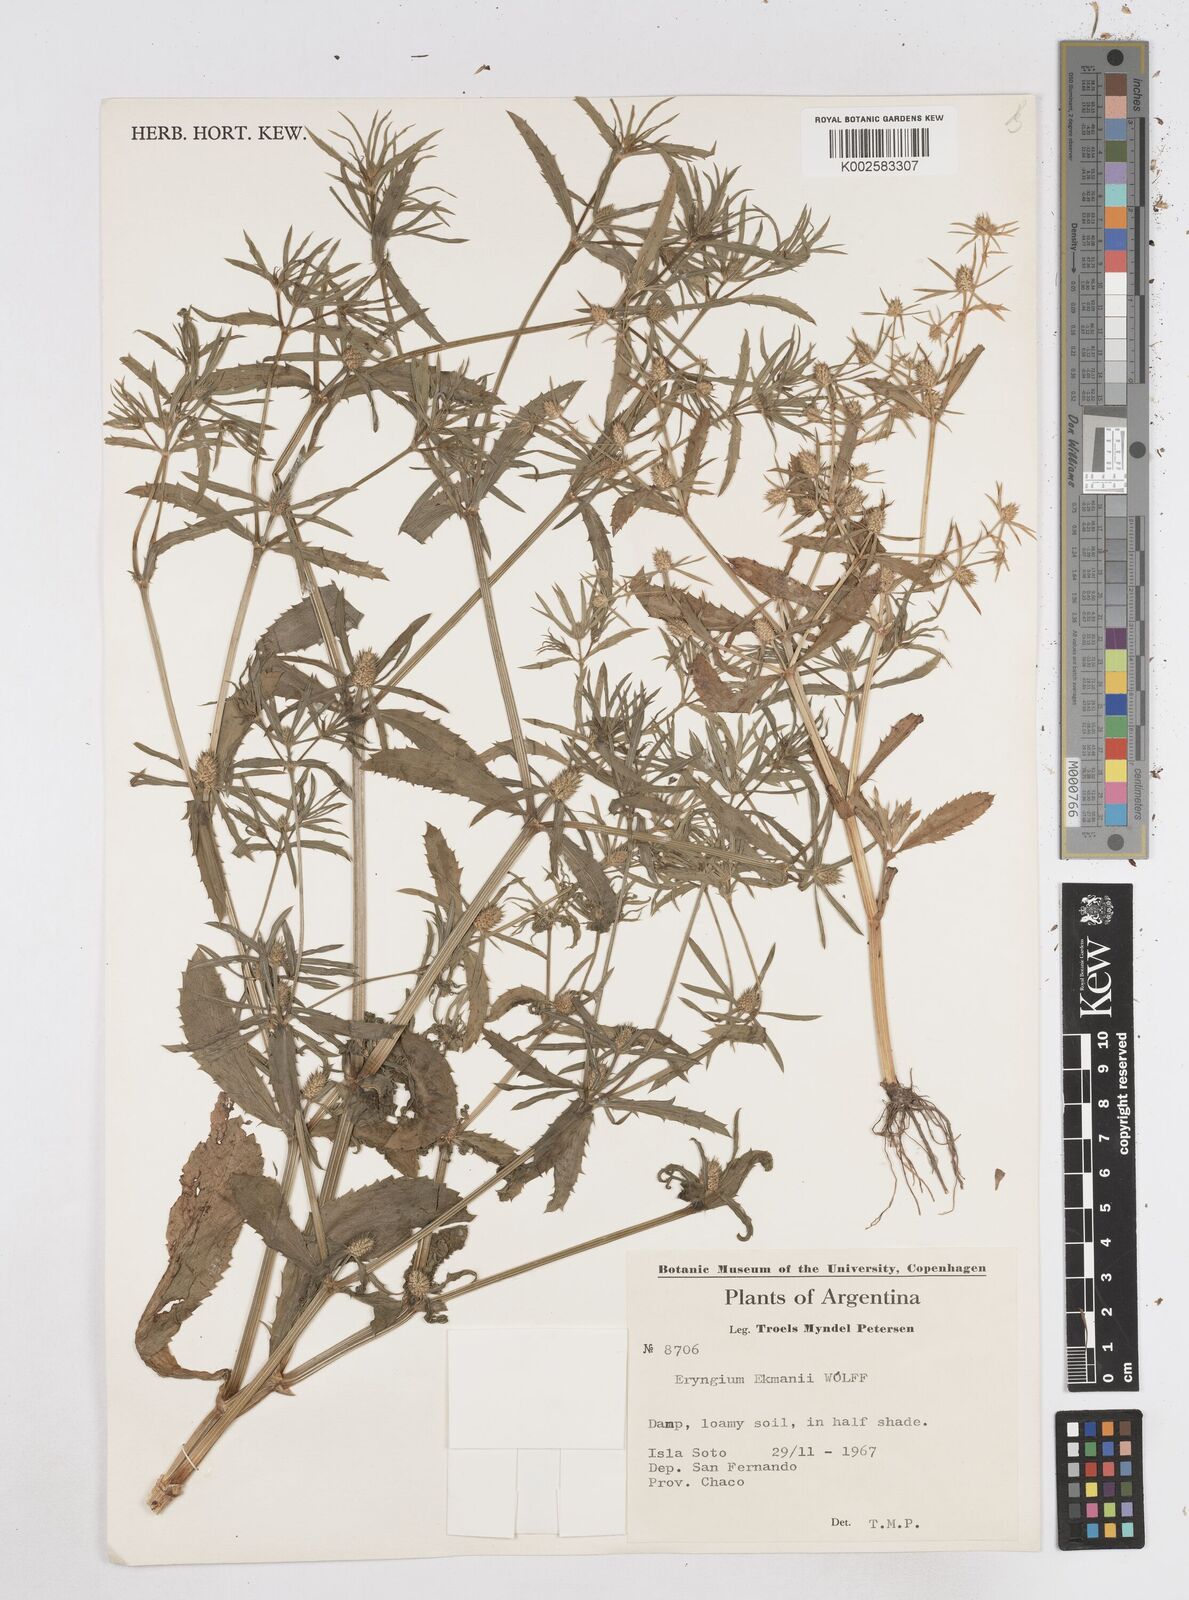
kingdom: Plantae
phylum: Tracheophyta
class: Magnoliopsida
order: Apiales
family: Apiaceae
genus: Eryngium
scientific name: Eryngium ekmanii
